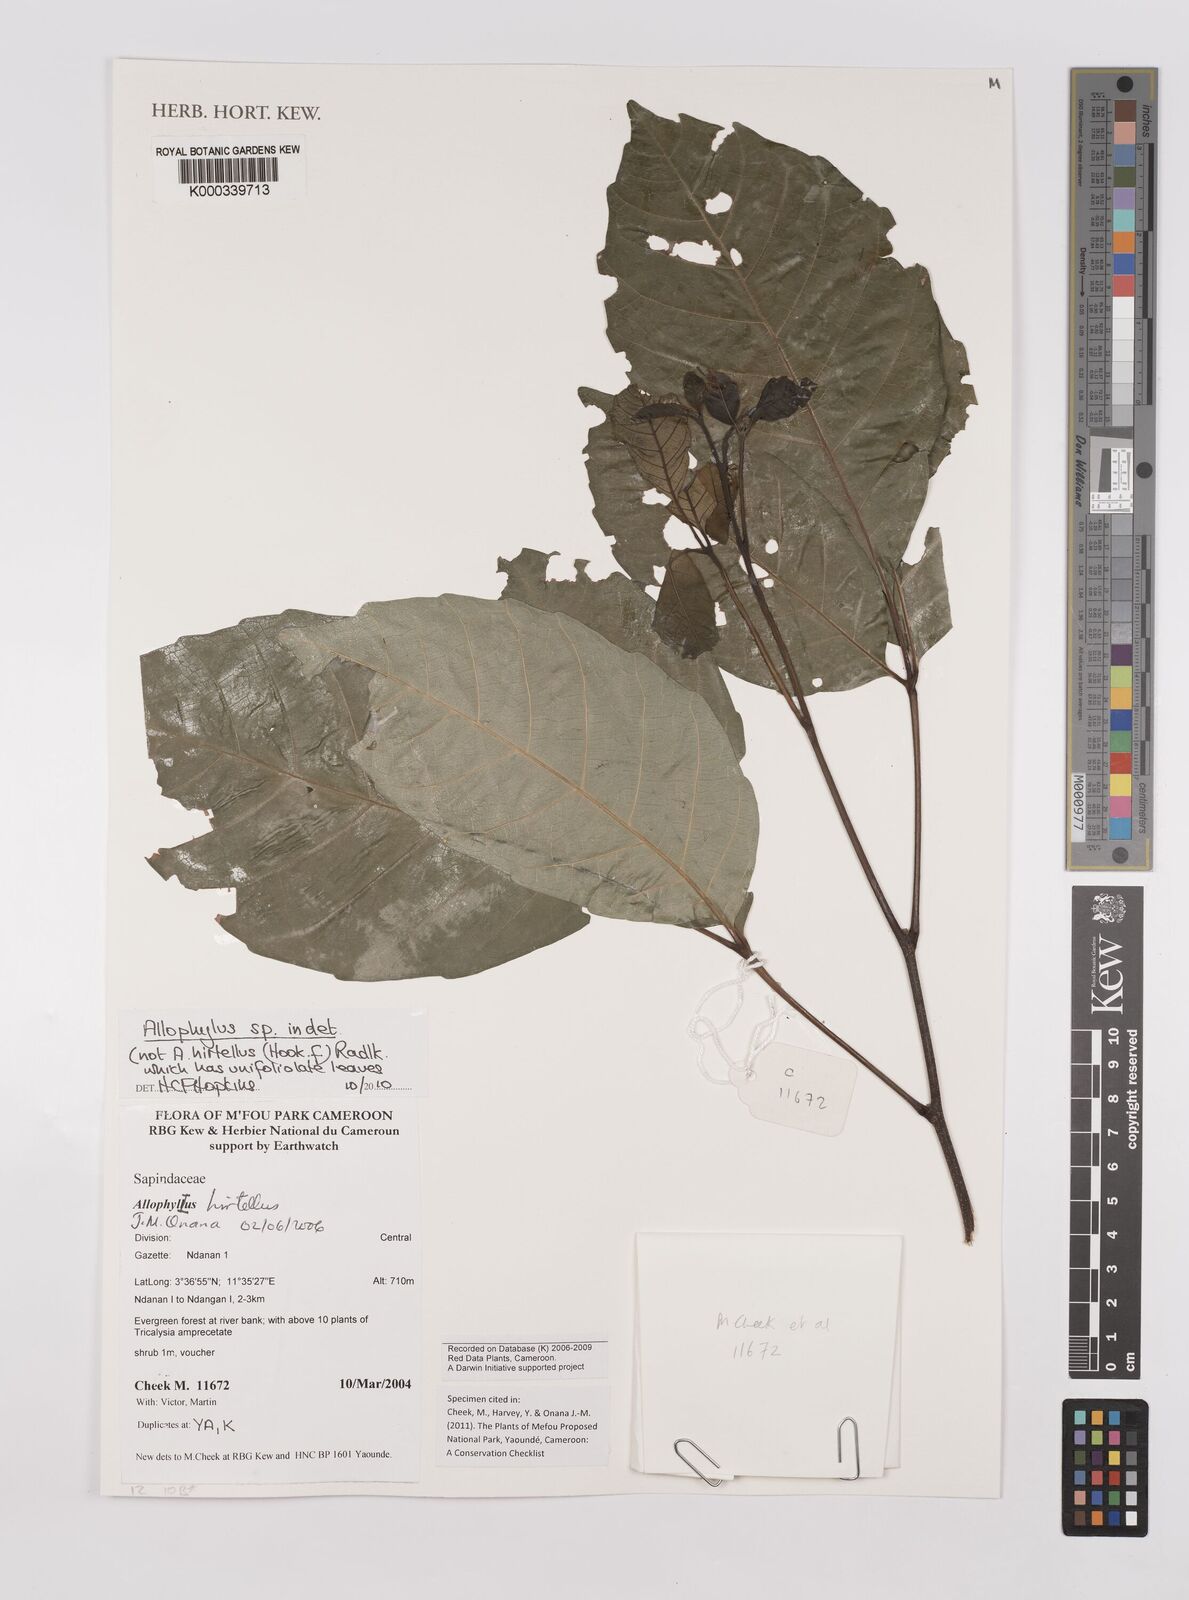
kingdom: Plantae
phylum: Tracheophyta
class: Magnoliopsida
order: Sapindales
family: Sapindaceae
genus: Allophylus
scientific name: Allophylus
